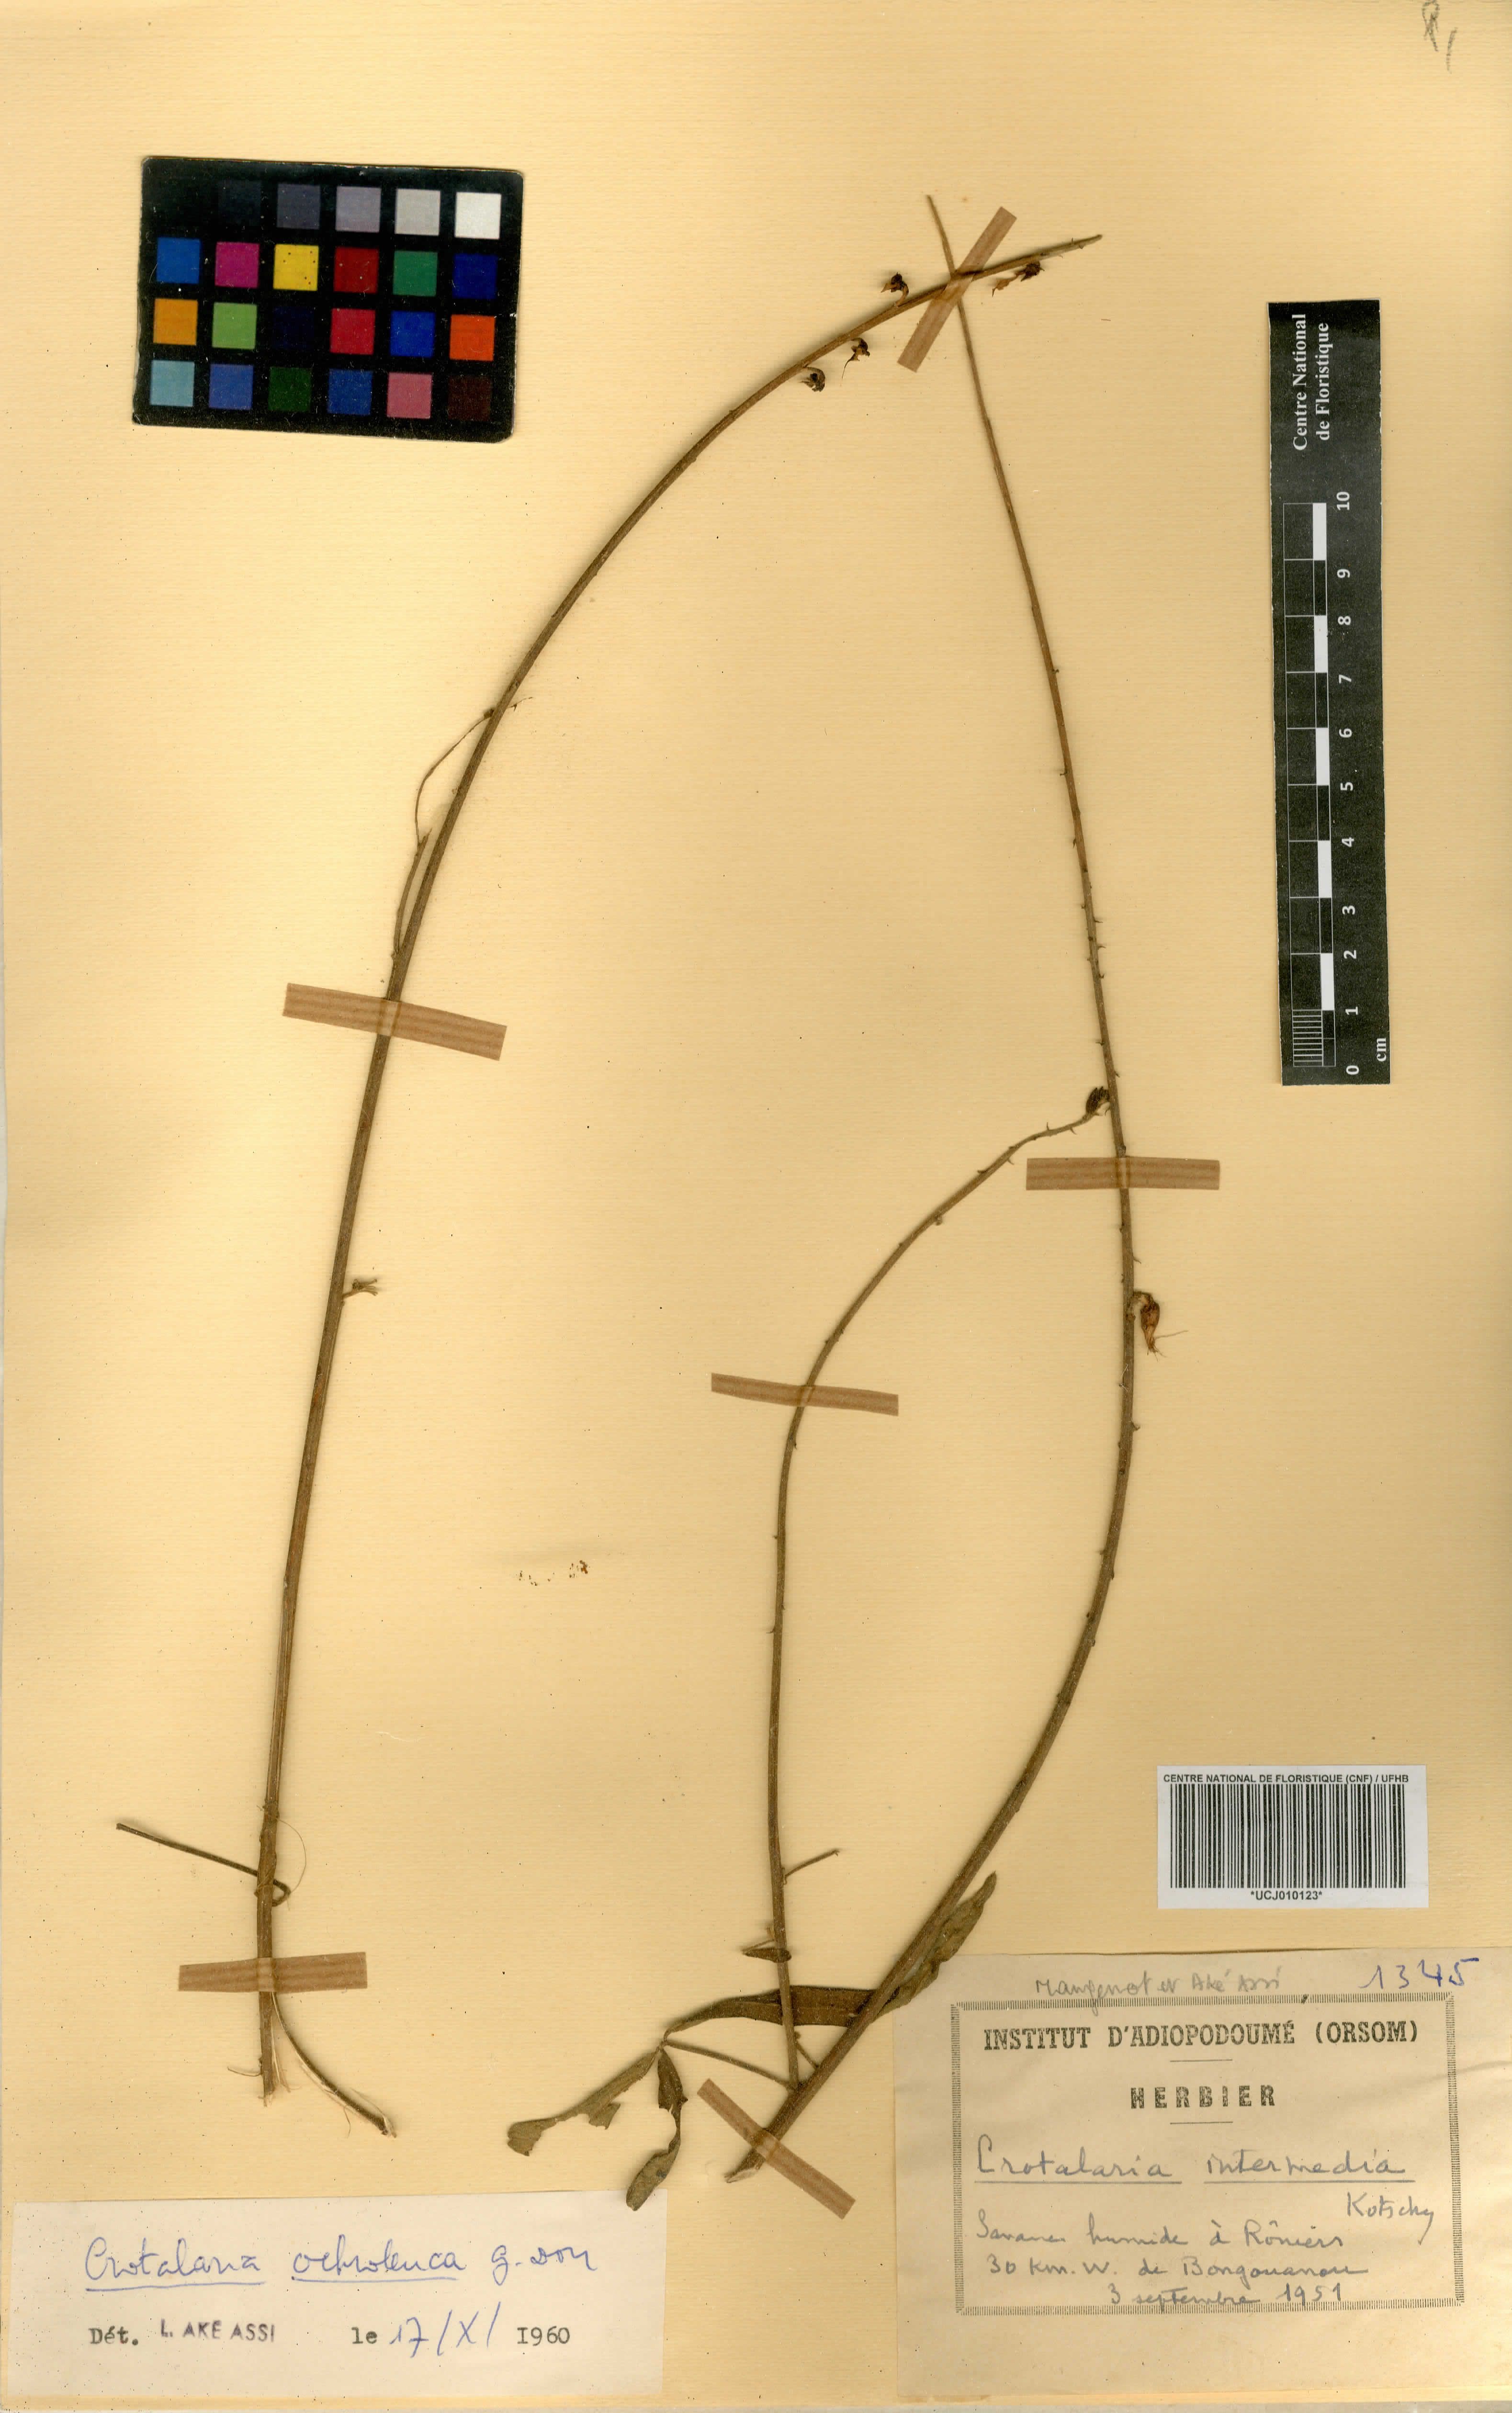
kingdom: Plantae
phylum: Tracheophyta
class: Magnoliopsida
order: Fabales
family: Fabaceae
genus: Crotalaria
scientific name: Crotalaria brevidens
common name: Ethiopian rattlebox
